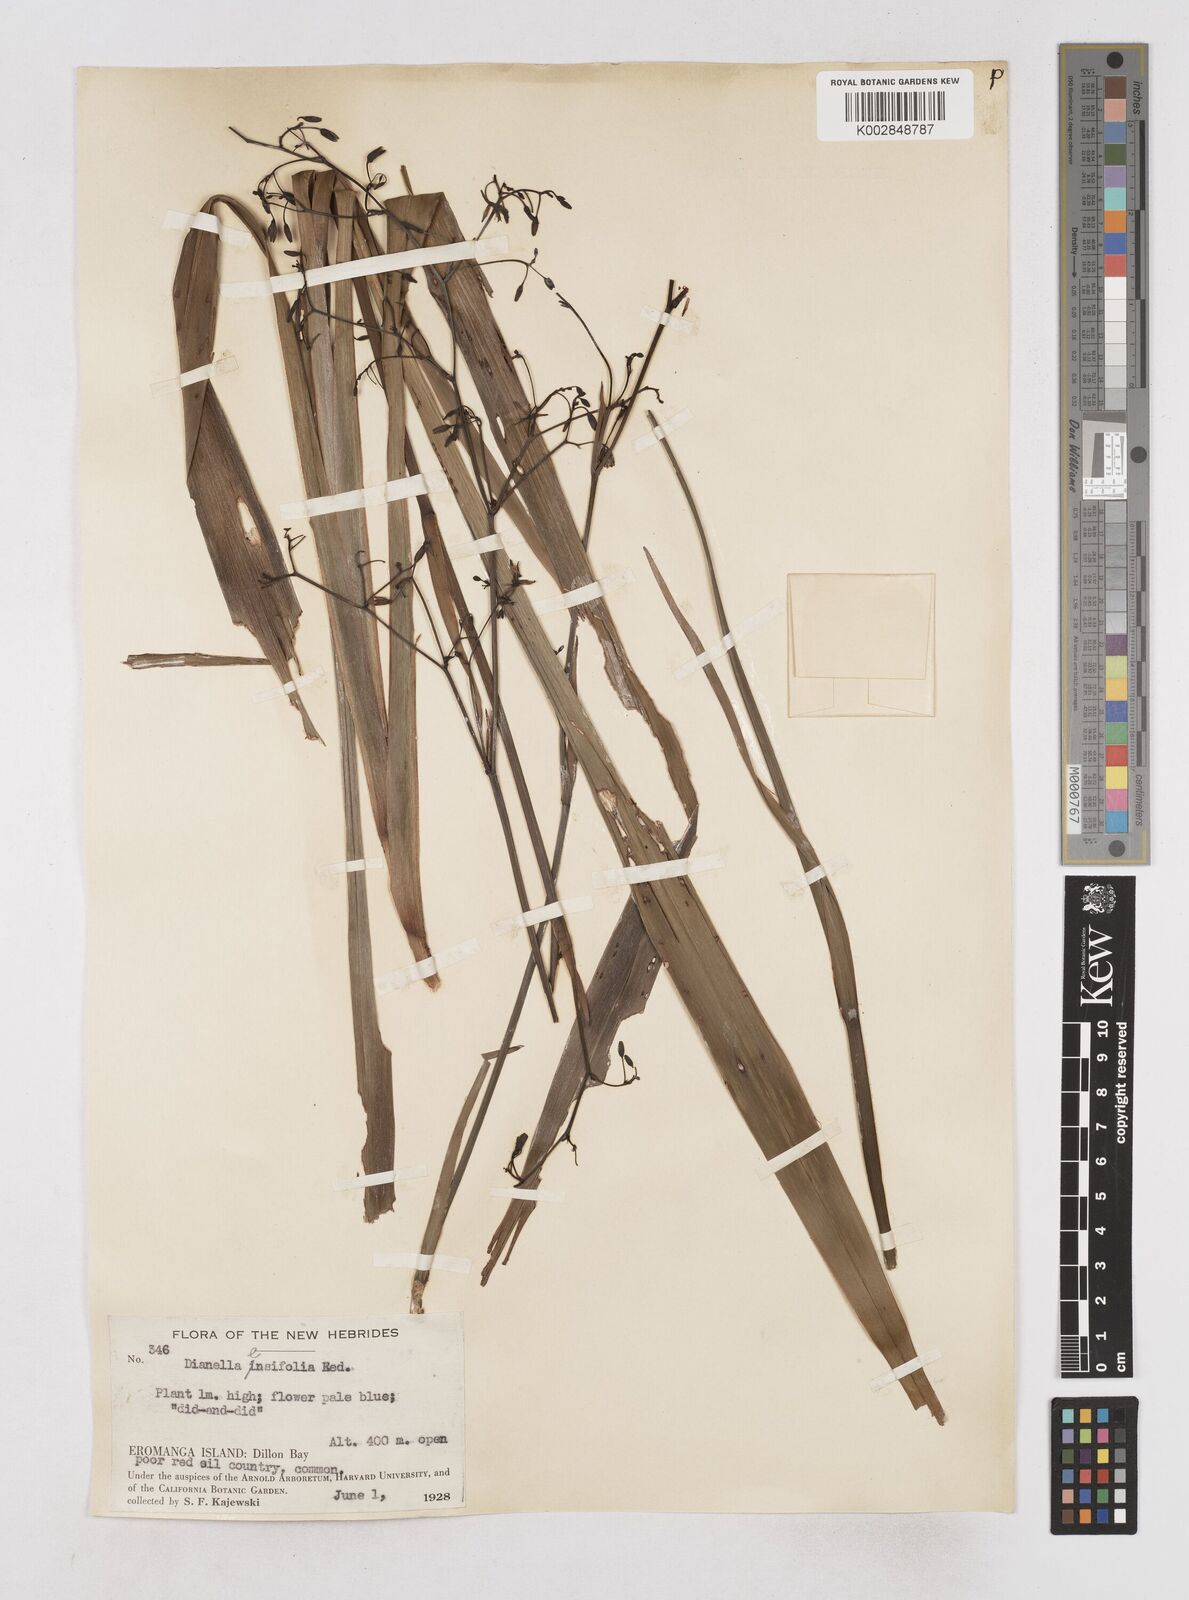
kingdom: Plantae
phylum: Tracheophyta
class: Liliopsida
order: Asparagales
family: Asphodelaceae
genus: Dianella
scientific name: Dianella ensifolia
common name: New zealand lilyplant
